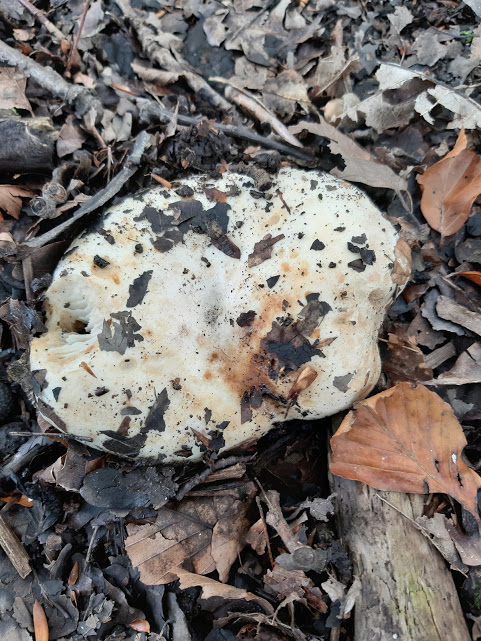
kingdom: Fungi
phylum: Basidiomycota
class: Agaricomycetes
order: Russulales
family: Russulaceae
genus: Russula
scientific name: Russula
